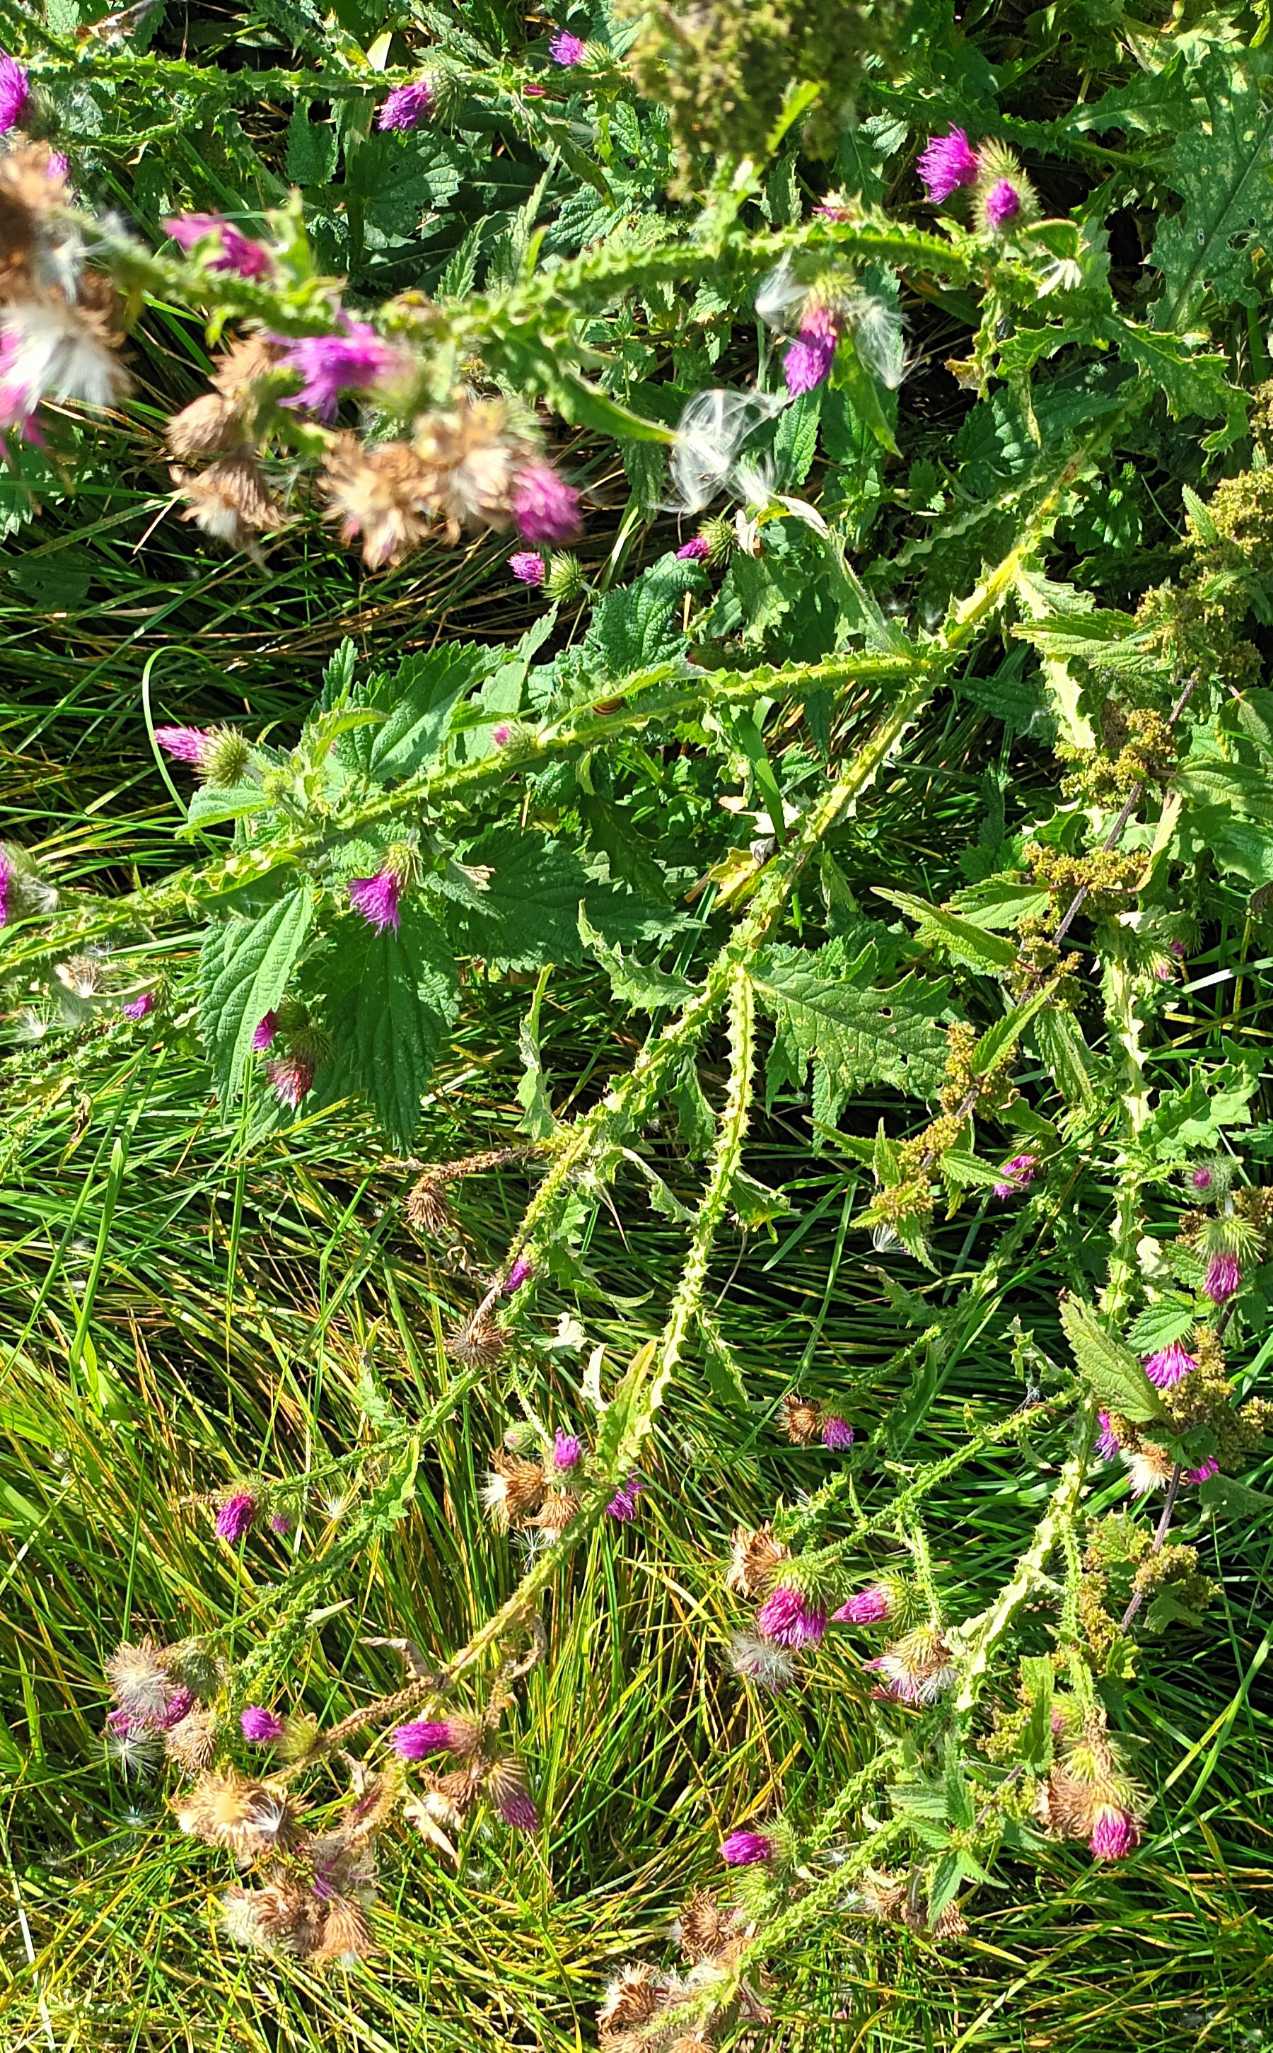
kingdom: Plantae
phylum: Tracheophyta
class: Magnoliopsida
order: Asterales
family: Asteraceae
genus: Carduus
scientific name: Carduus crispus
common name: Kruset tidsel
